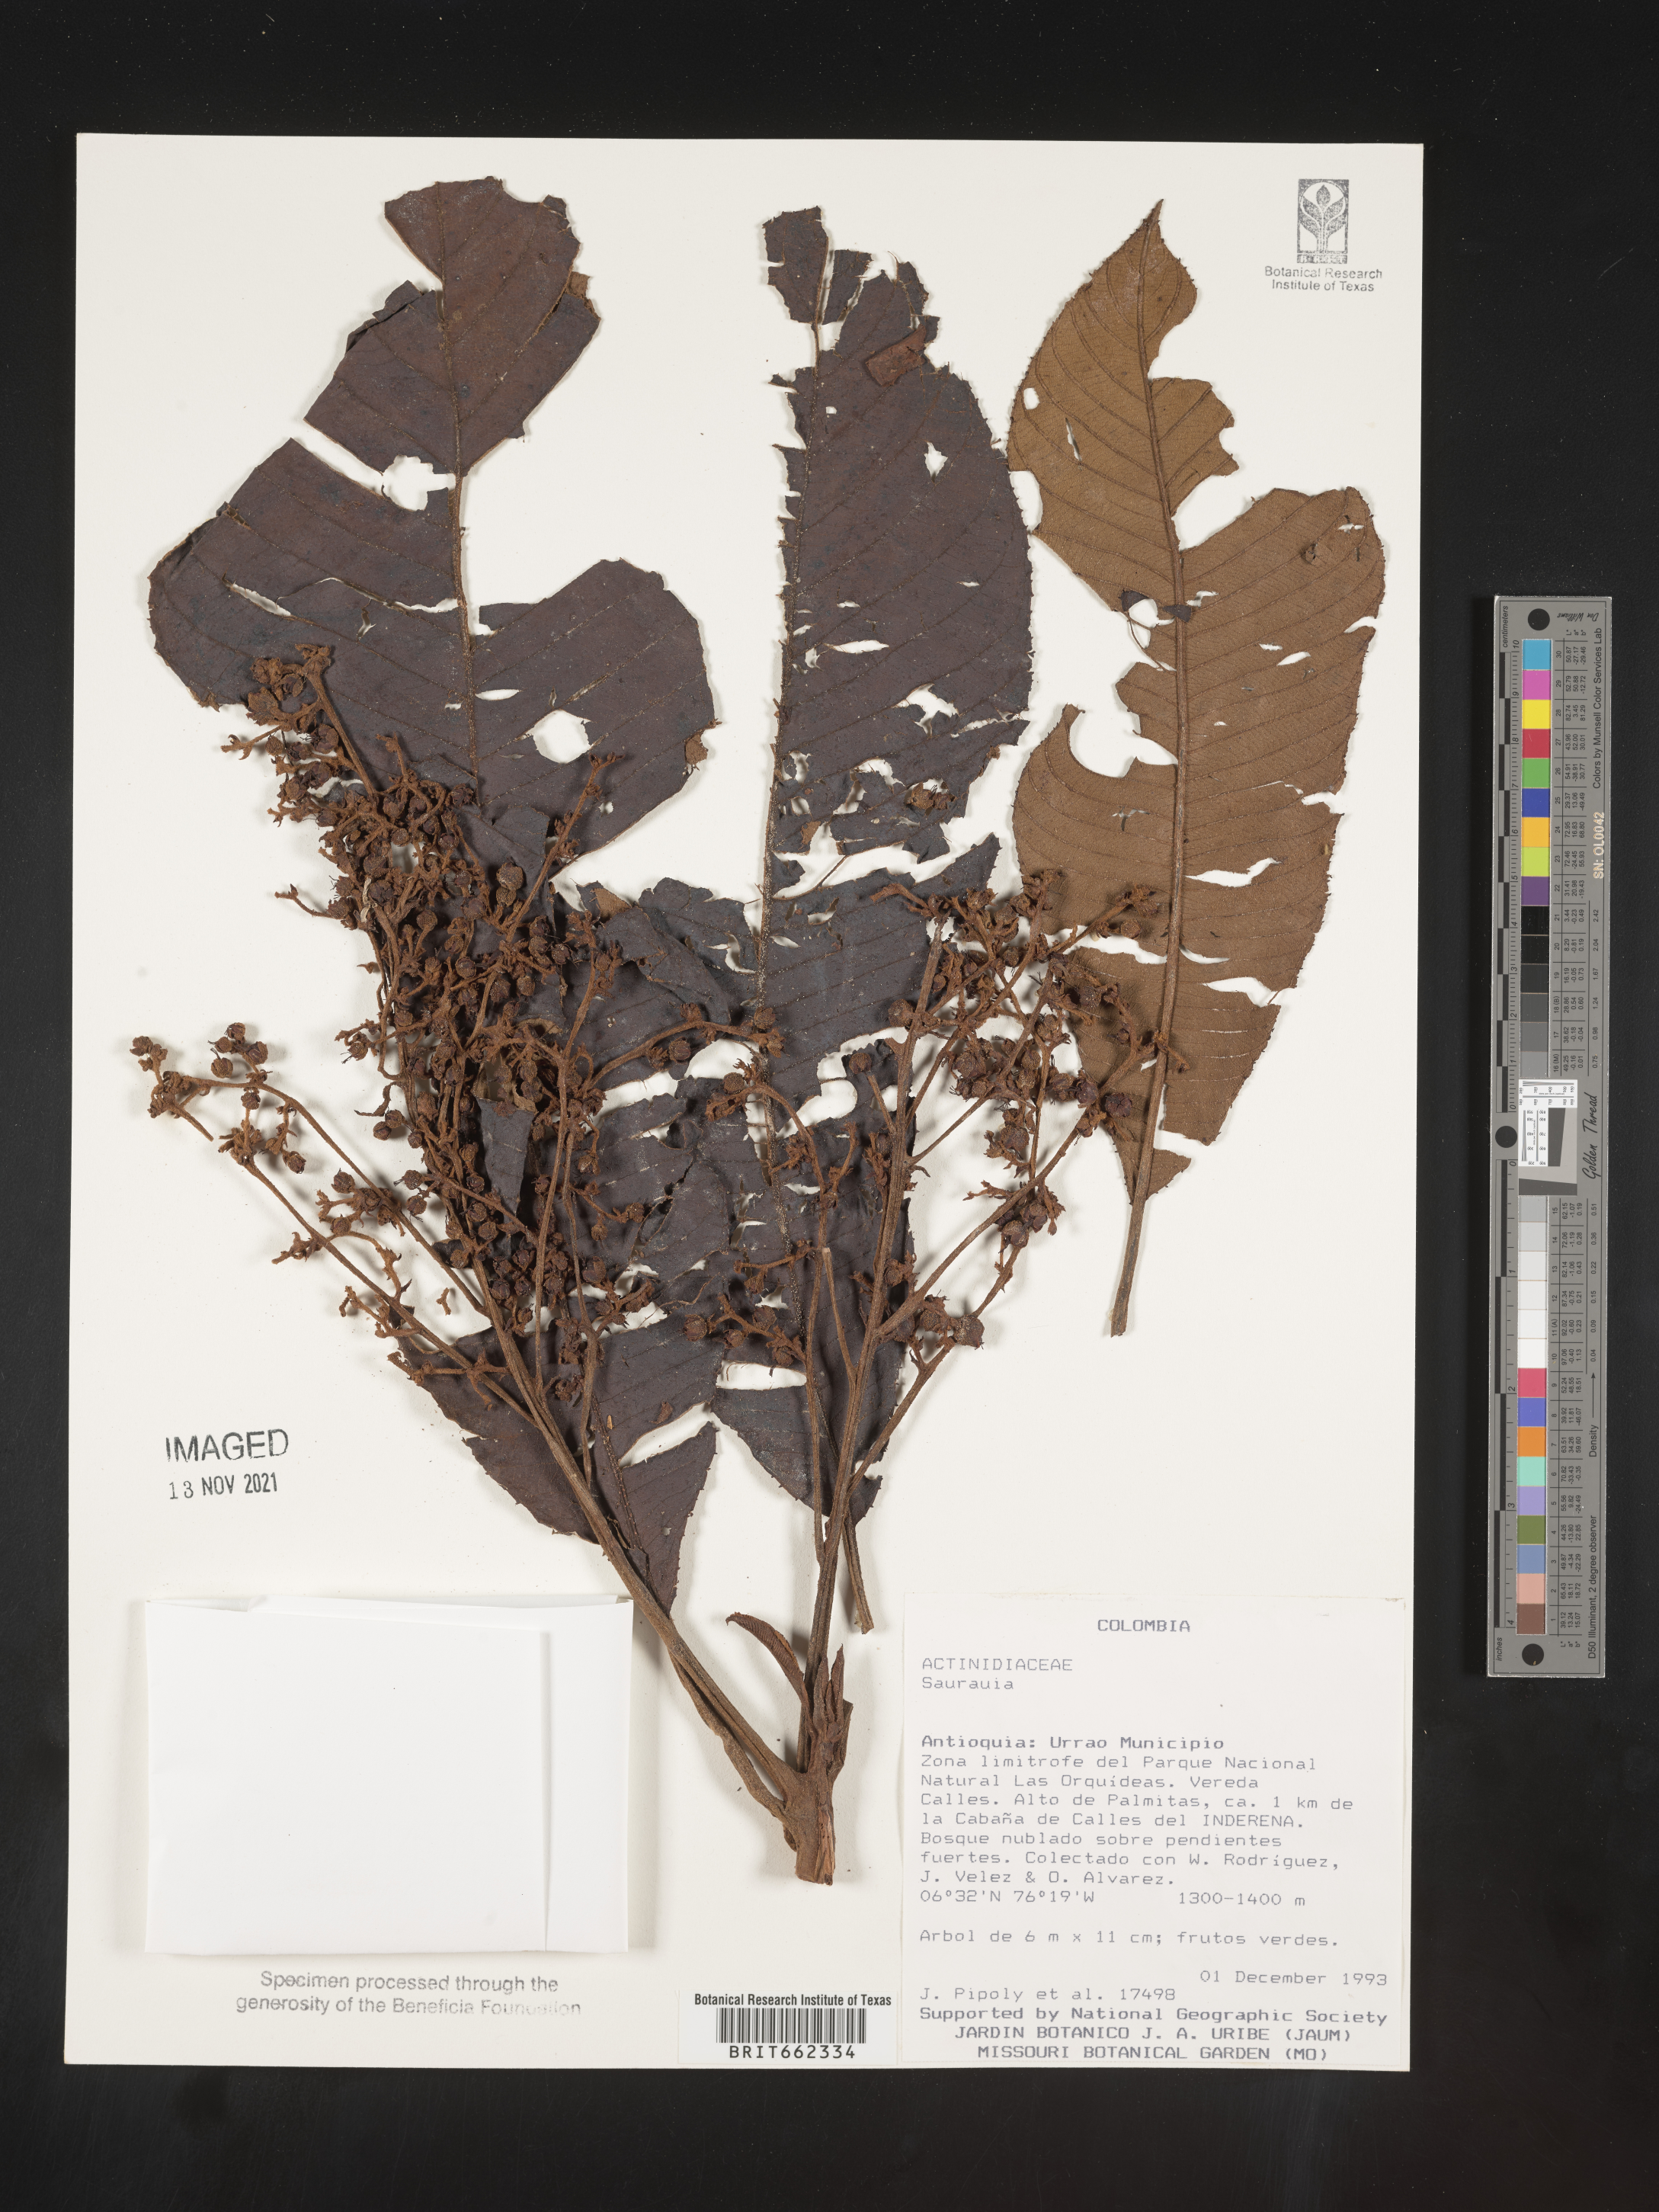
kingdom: Plantae
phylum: Tracheophyta
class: Magnoliopsida
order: Ericales
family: Actinidiaceae
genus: Saurauia
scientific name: Saurauia
